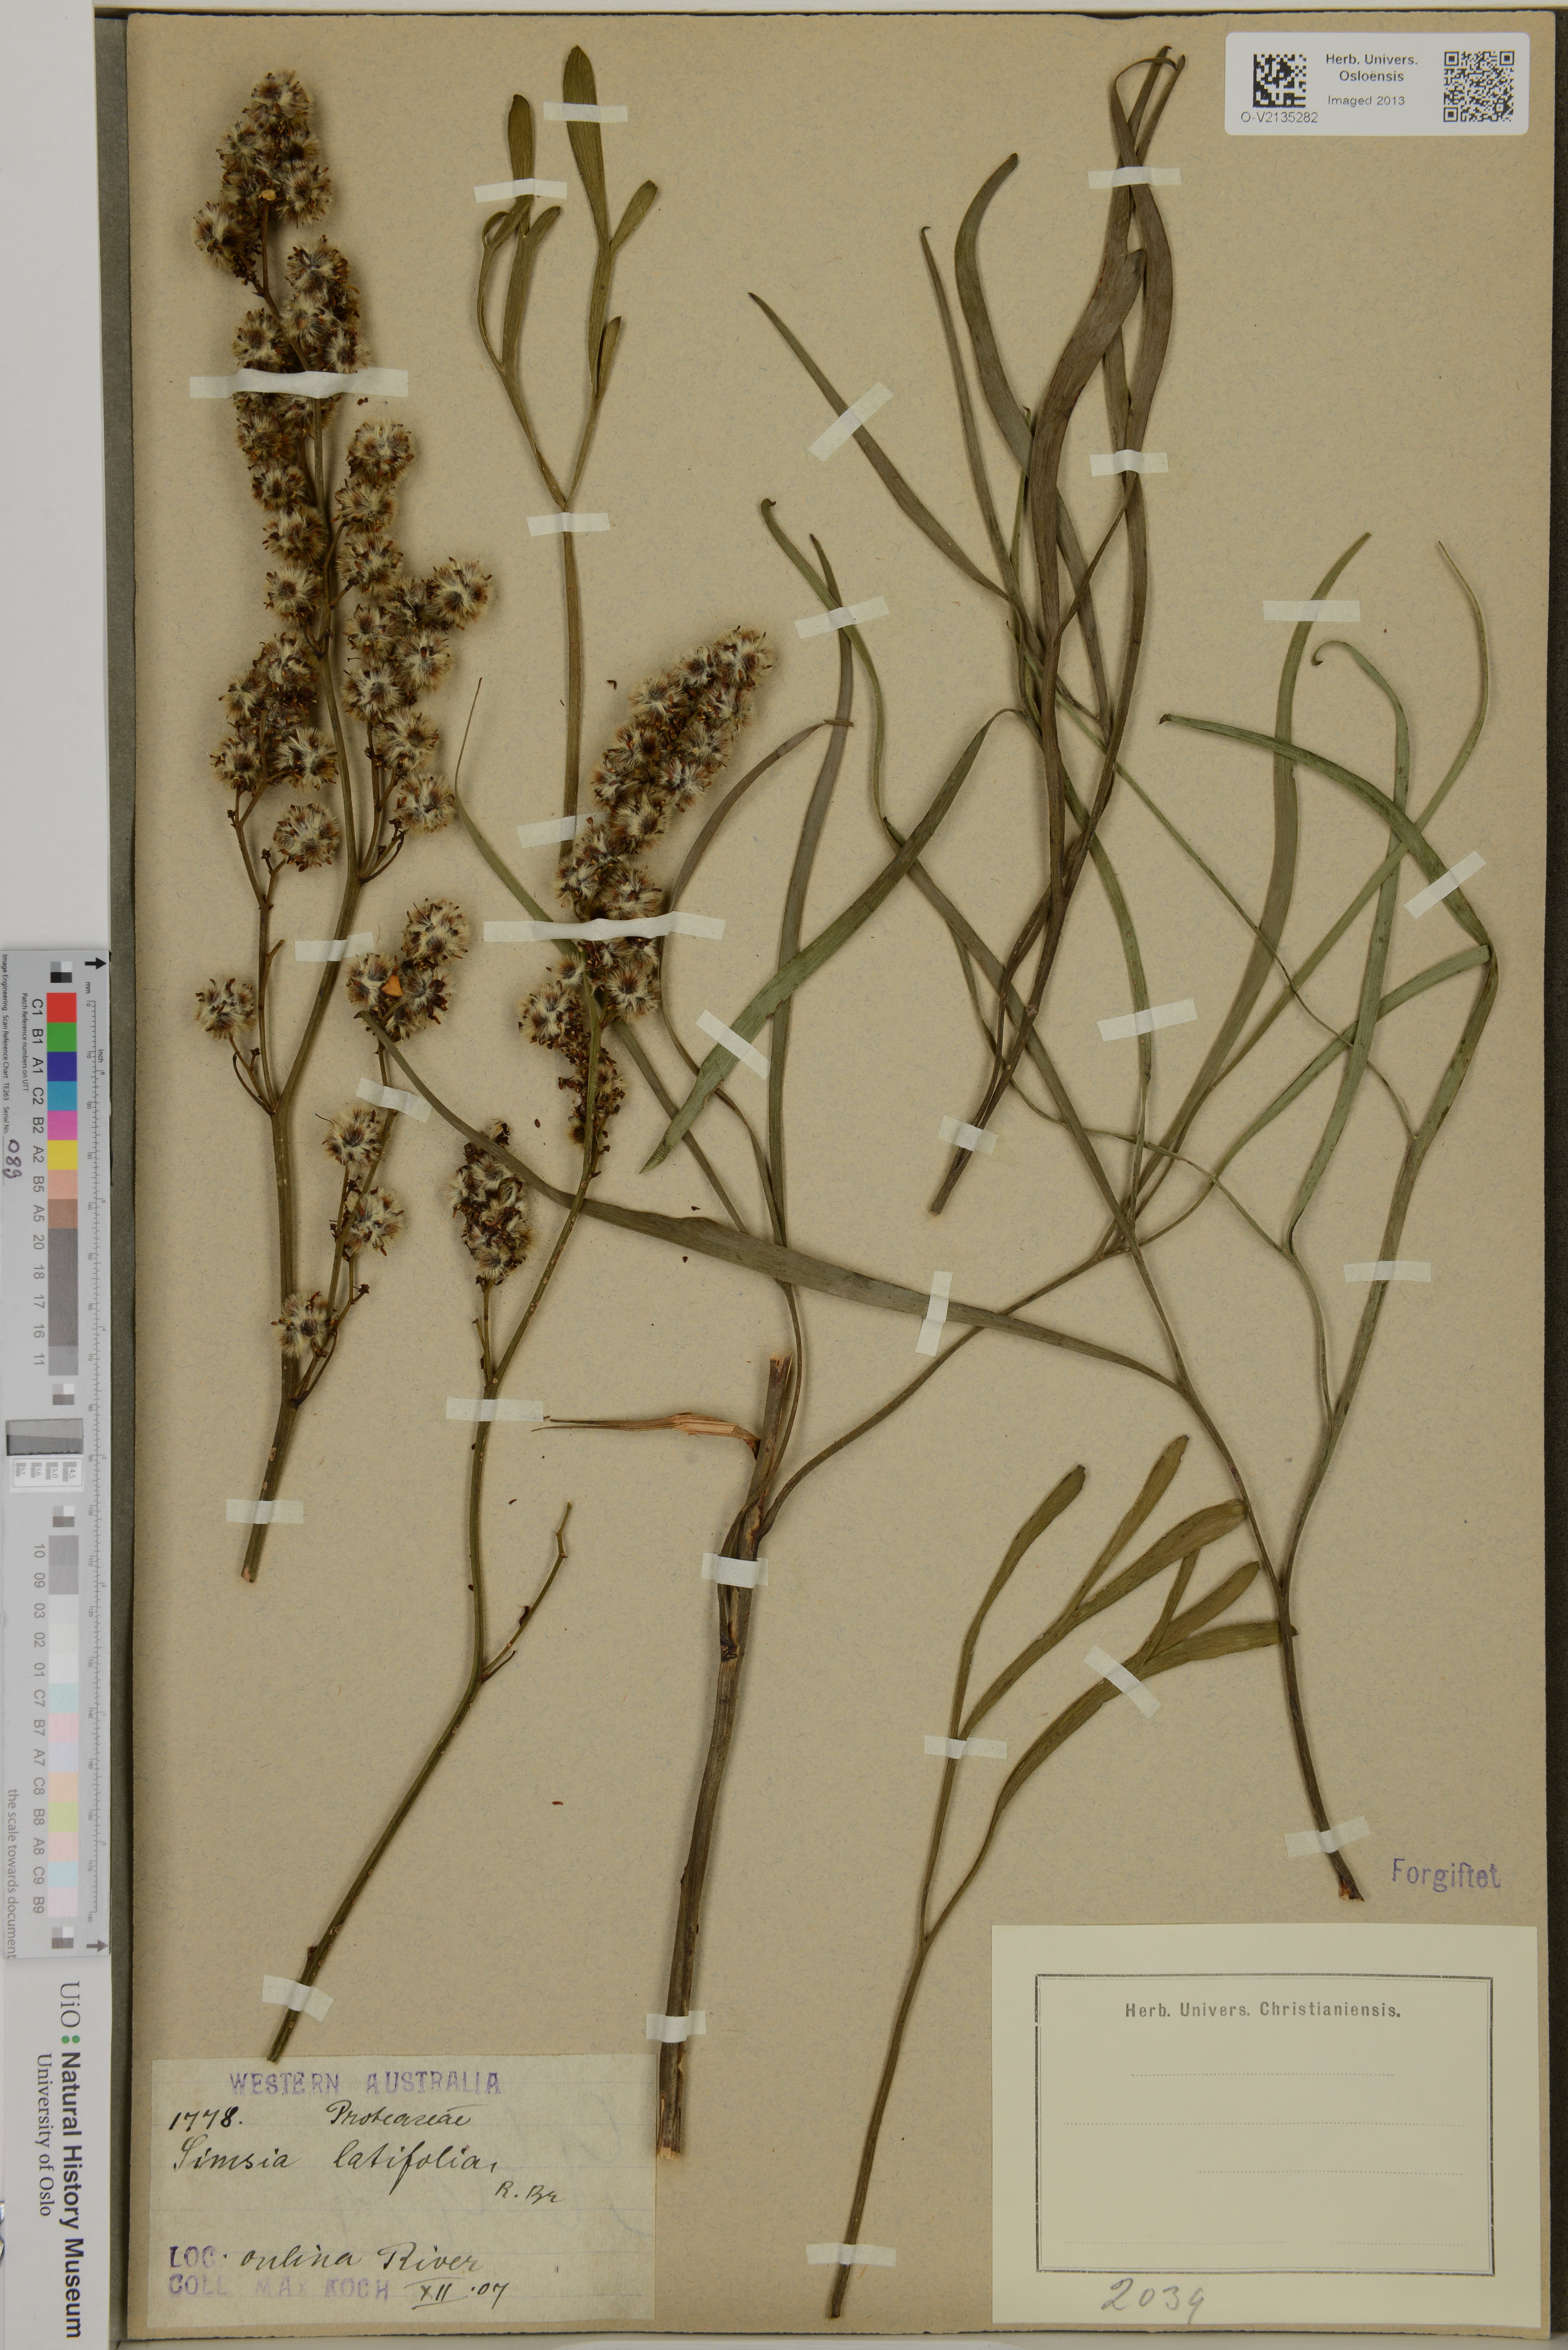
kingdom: Plantae
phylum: Tracheophyta
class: Magnoliopsida
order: Proteales
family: Proteaceae
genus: Stirlingia
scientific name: Stirlingia latifolia
